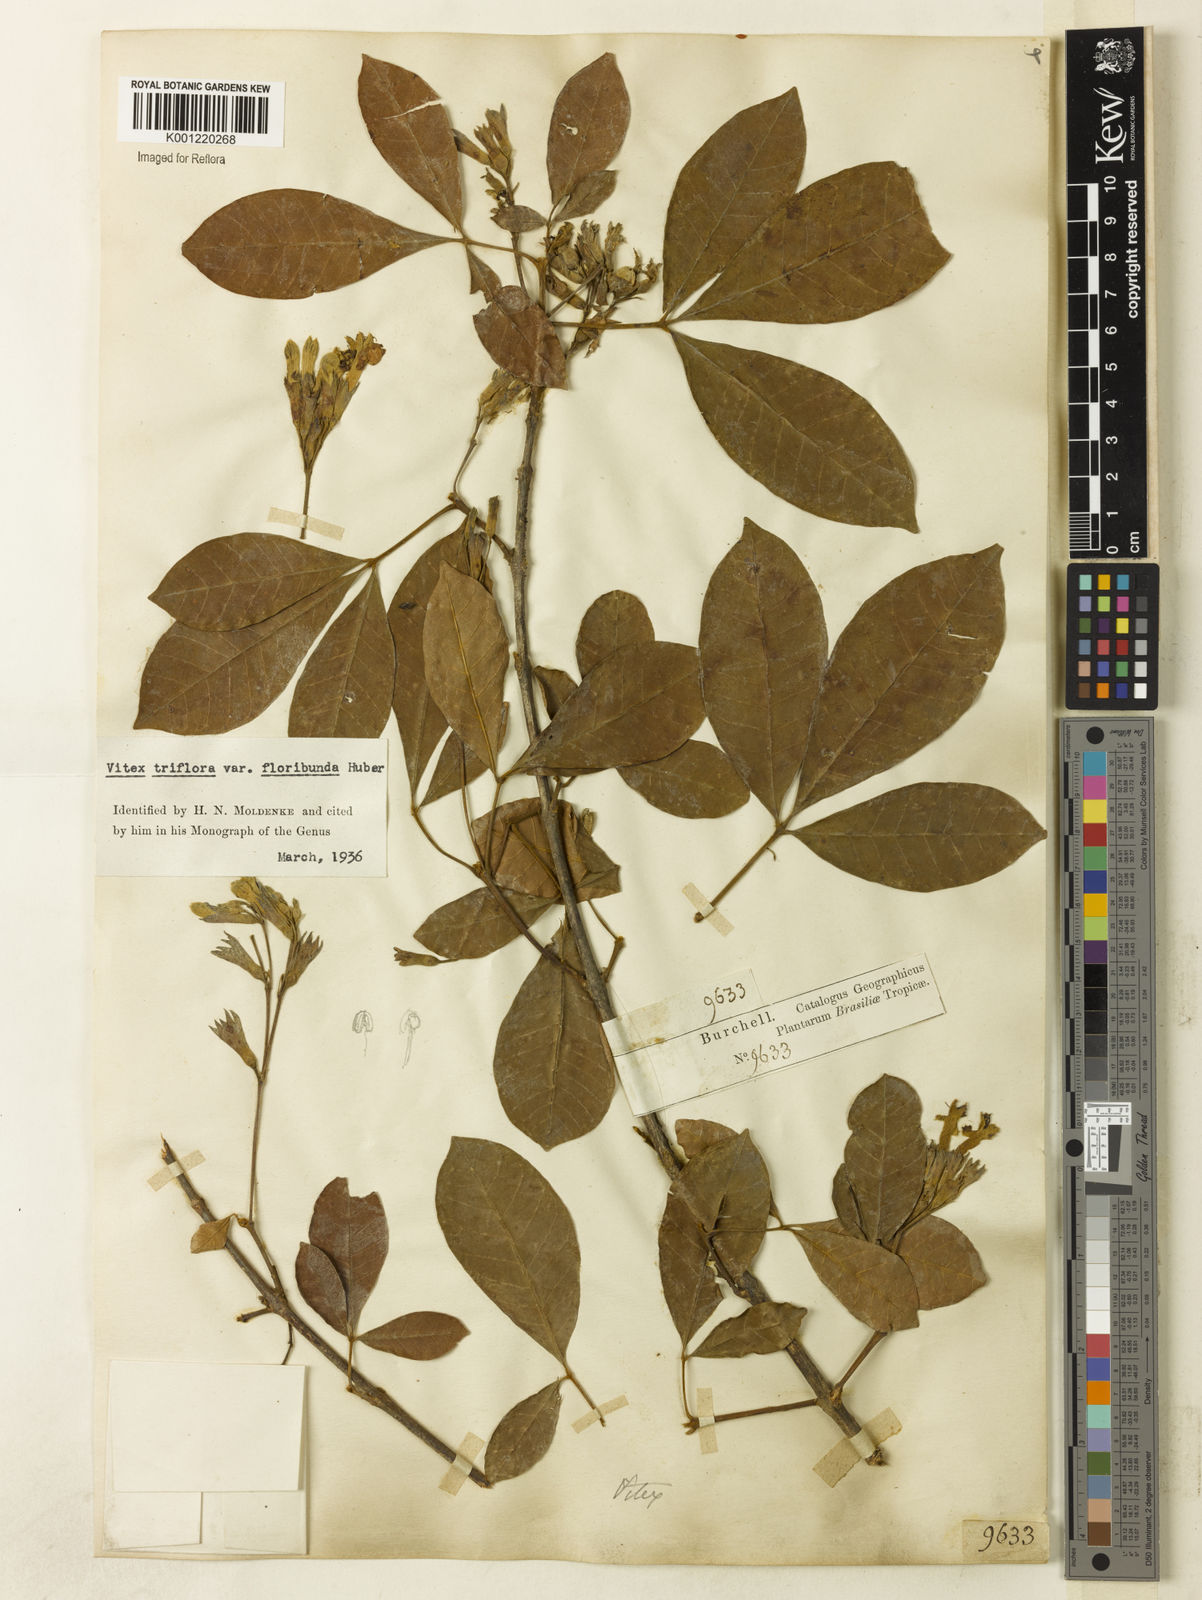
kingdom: Plantae
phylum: Tracheophyta
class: Magnoliopsida
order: Lamiales
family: Lamiaceae
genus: Vitex
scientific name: Vitex triflora
